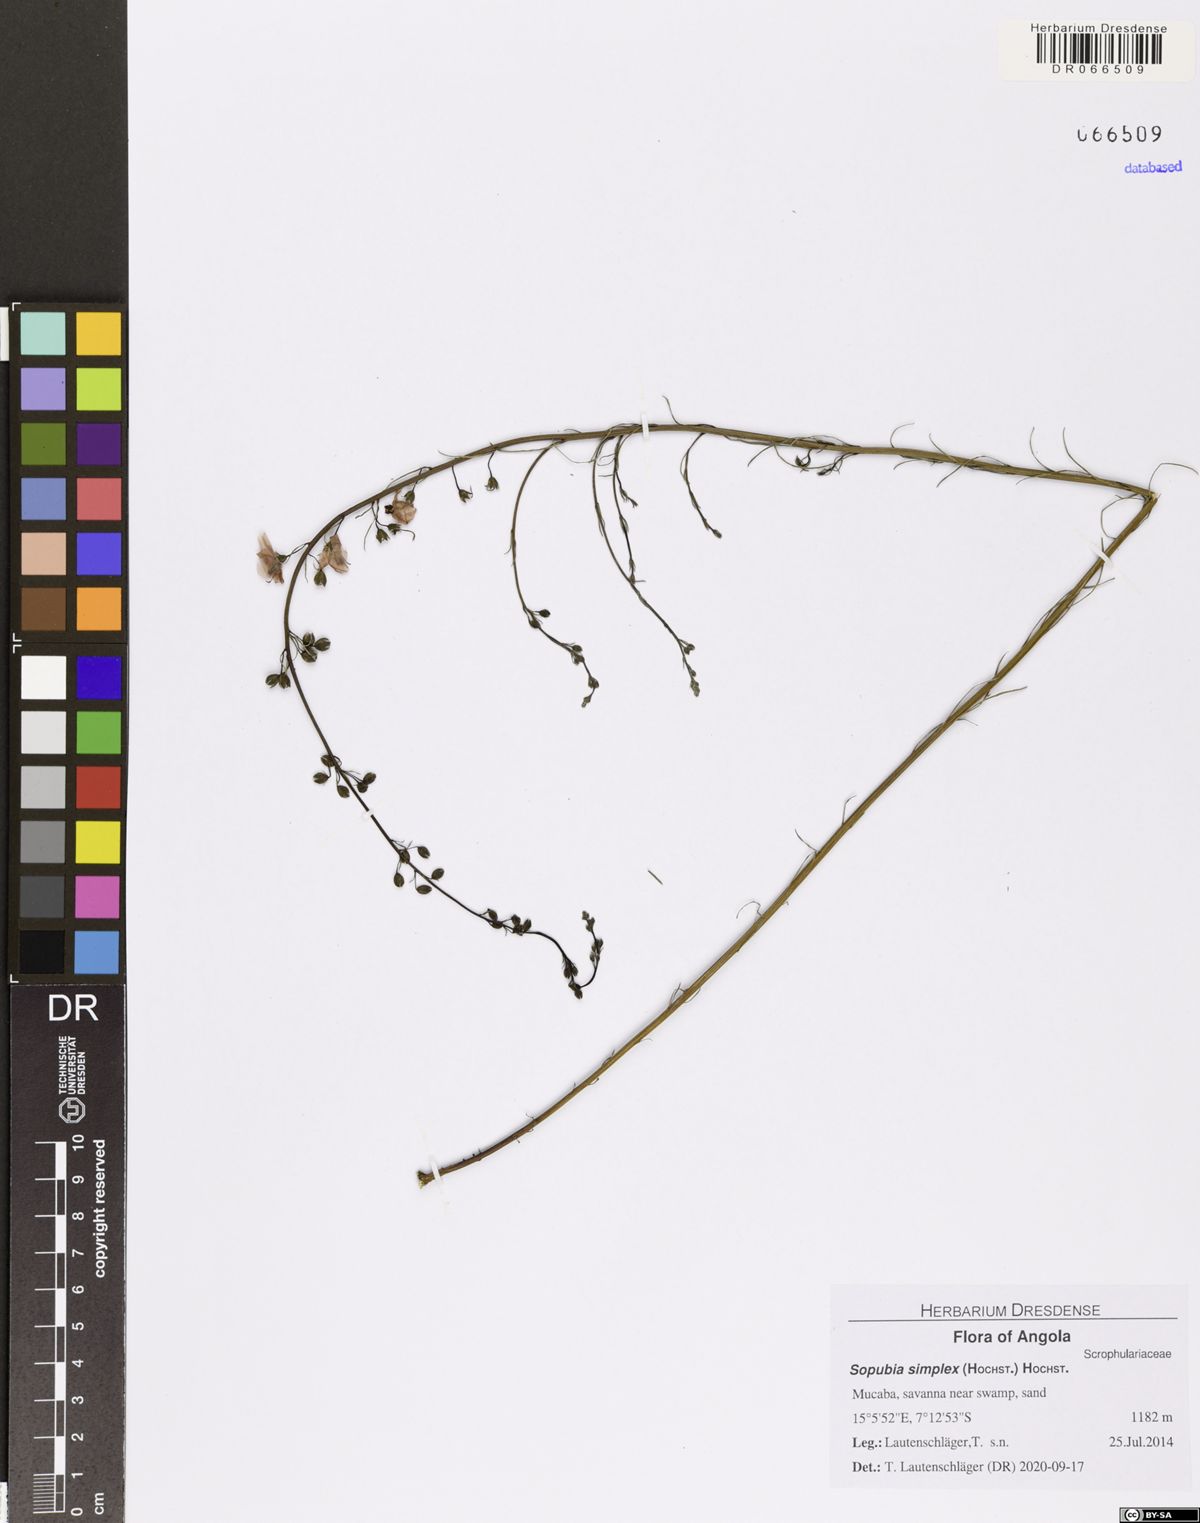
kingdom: Plantae
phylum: Tracheophyta
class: Magnoliopsida
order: Lamiales
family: Orobanchaceae
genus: Sopubia
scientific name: Sopubia simplex
